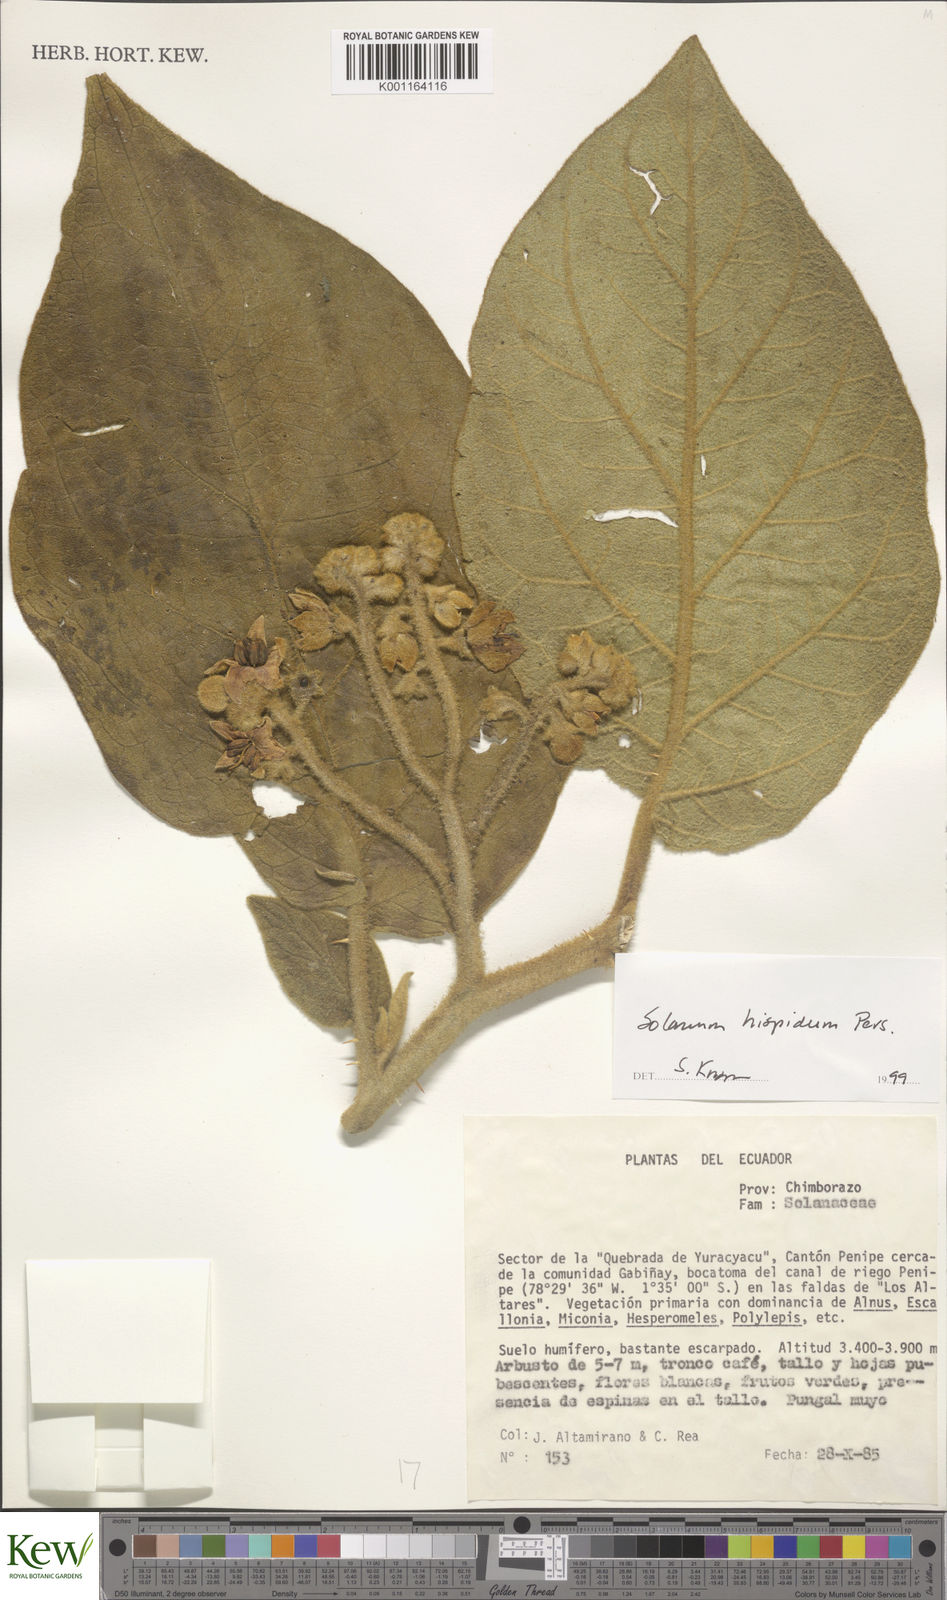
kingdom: Plantae
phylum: Tracheophyta
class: Magnoliopsida
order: Solanales
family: Solanaceae
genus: Solanum
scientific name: Solanum asperolanatum
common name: Devil's-fig
